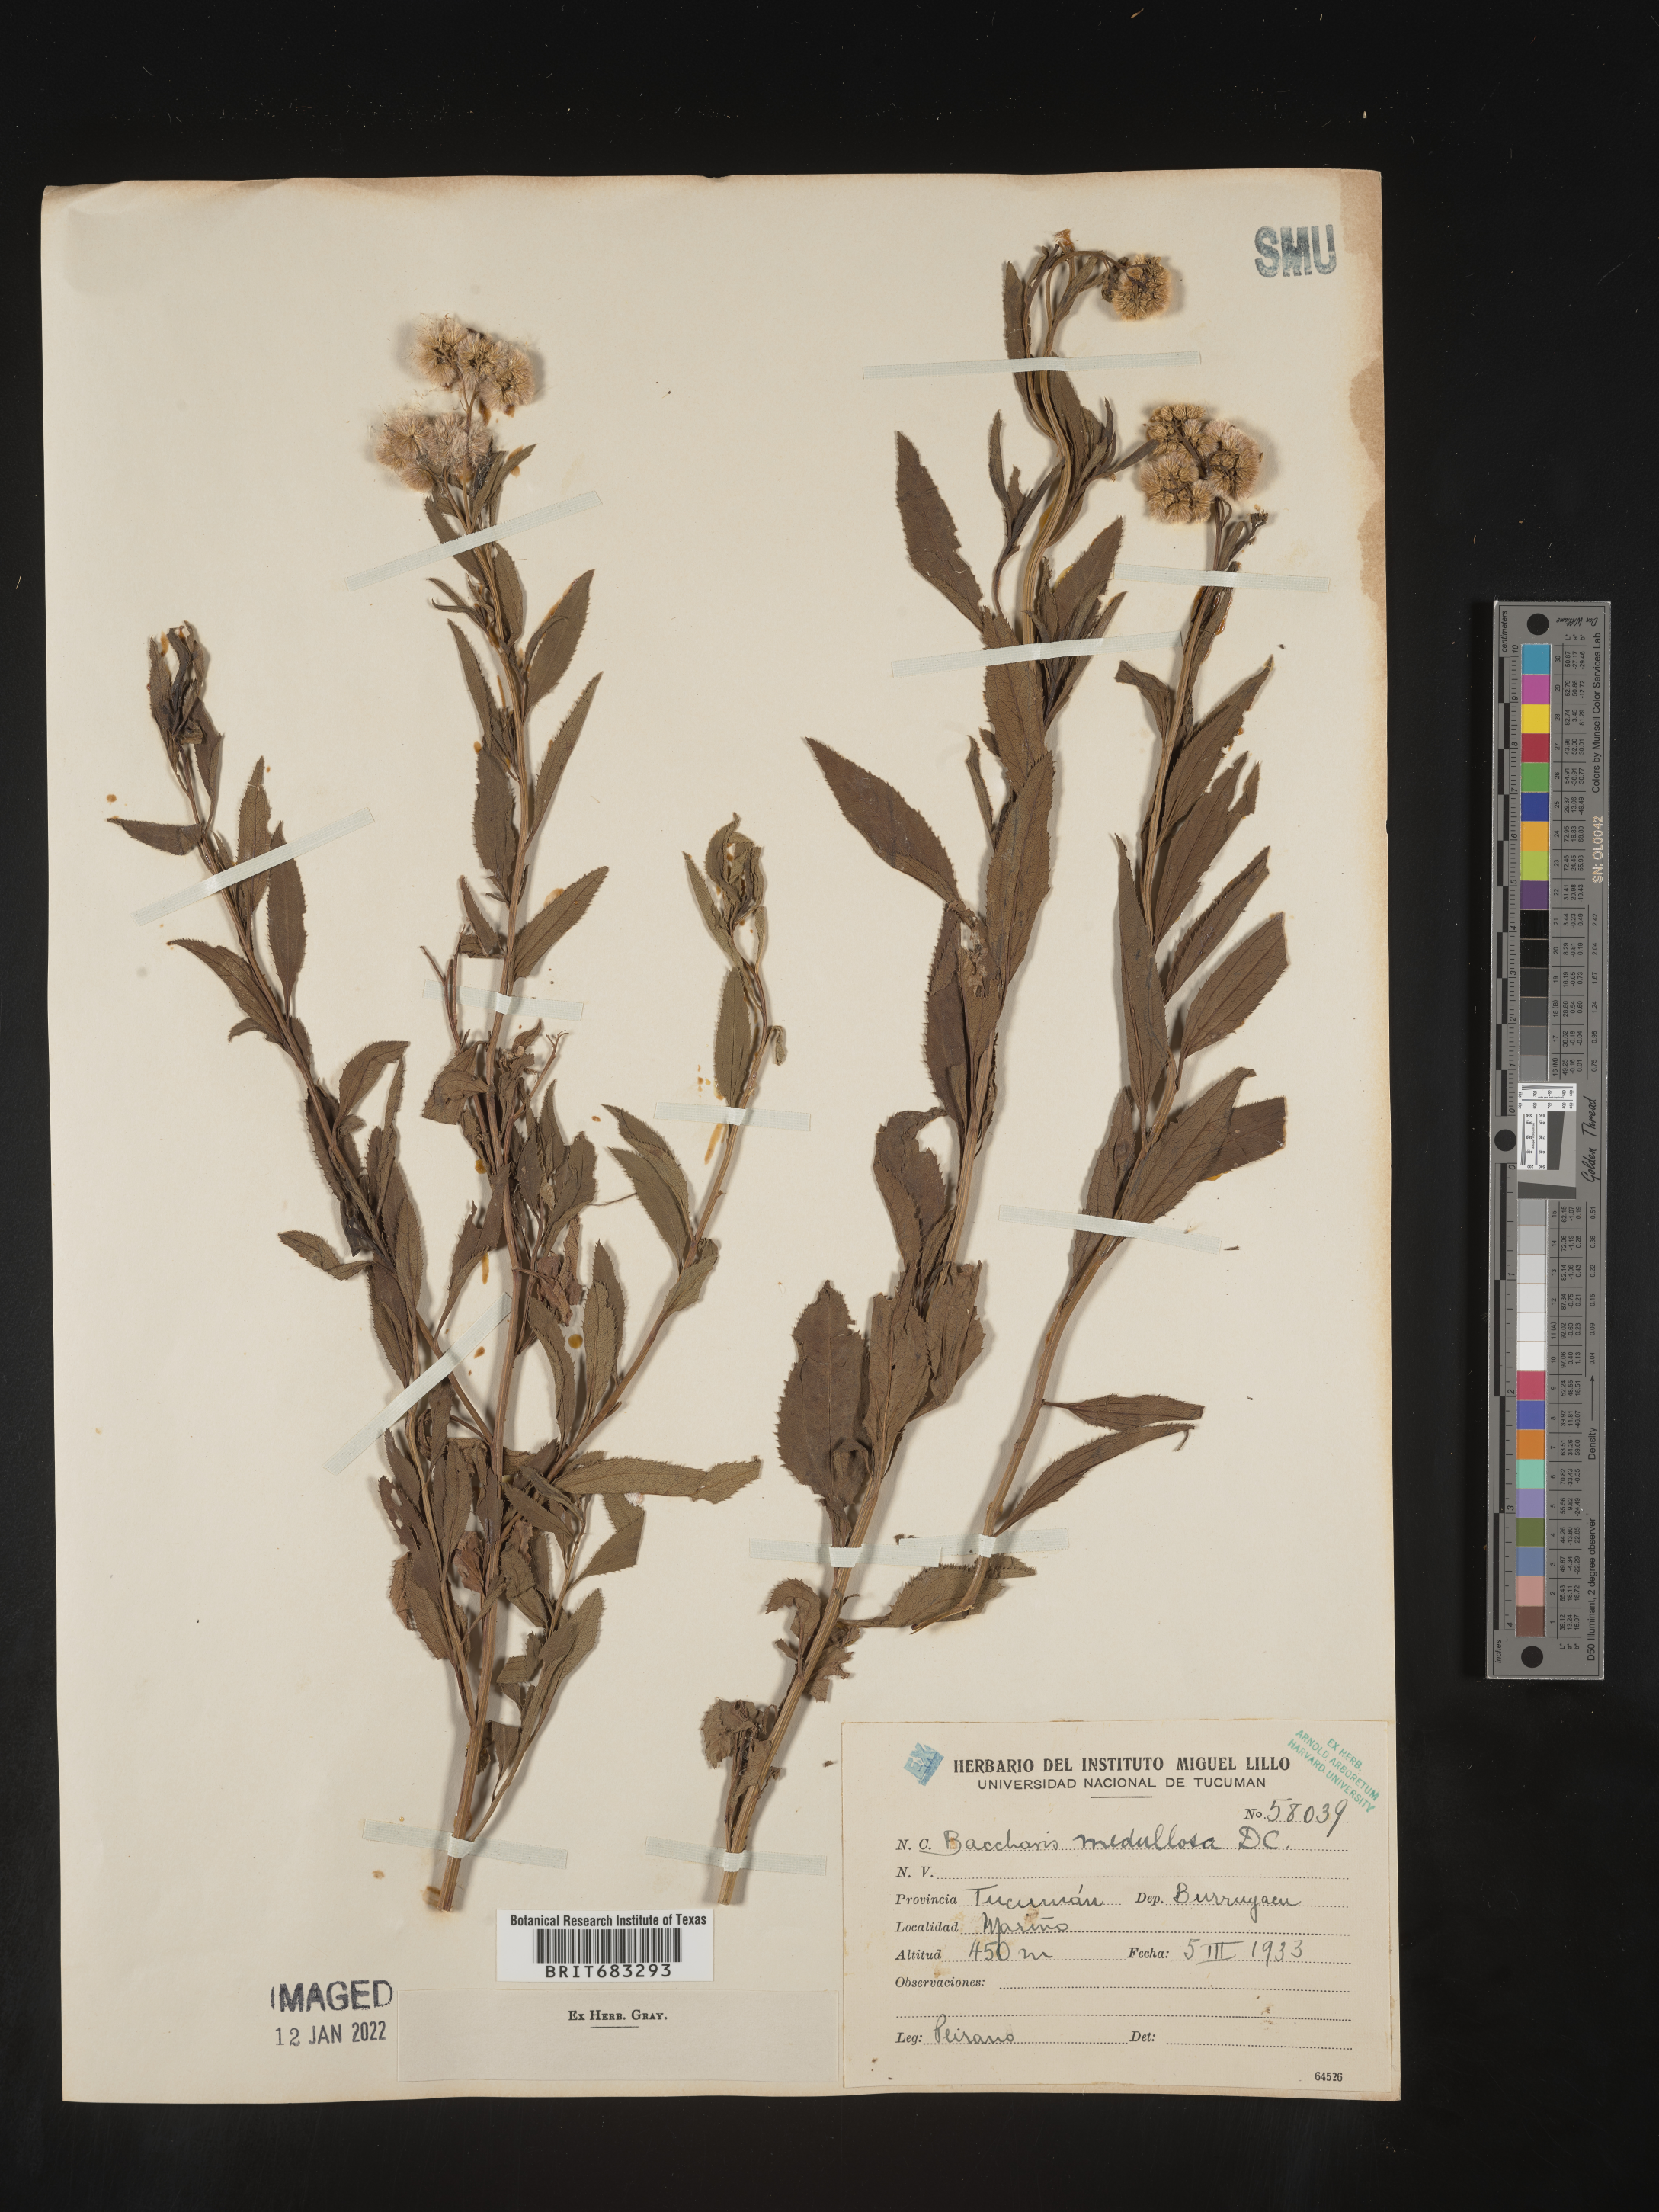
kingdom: Plantae
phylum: Tracheophyta
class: Magnoliopsida
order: Asterales
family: Asteraceae
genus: Baccharis
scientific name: Baccharis
